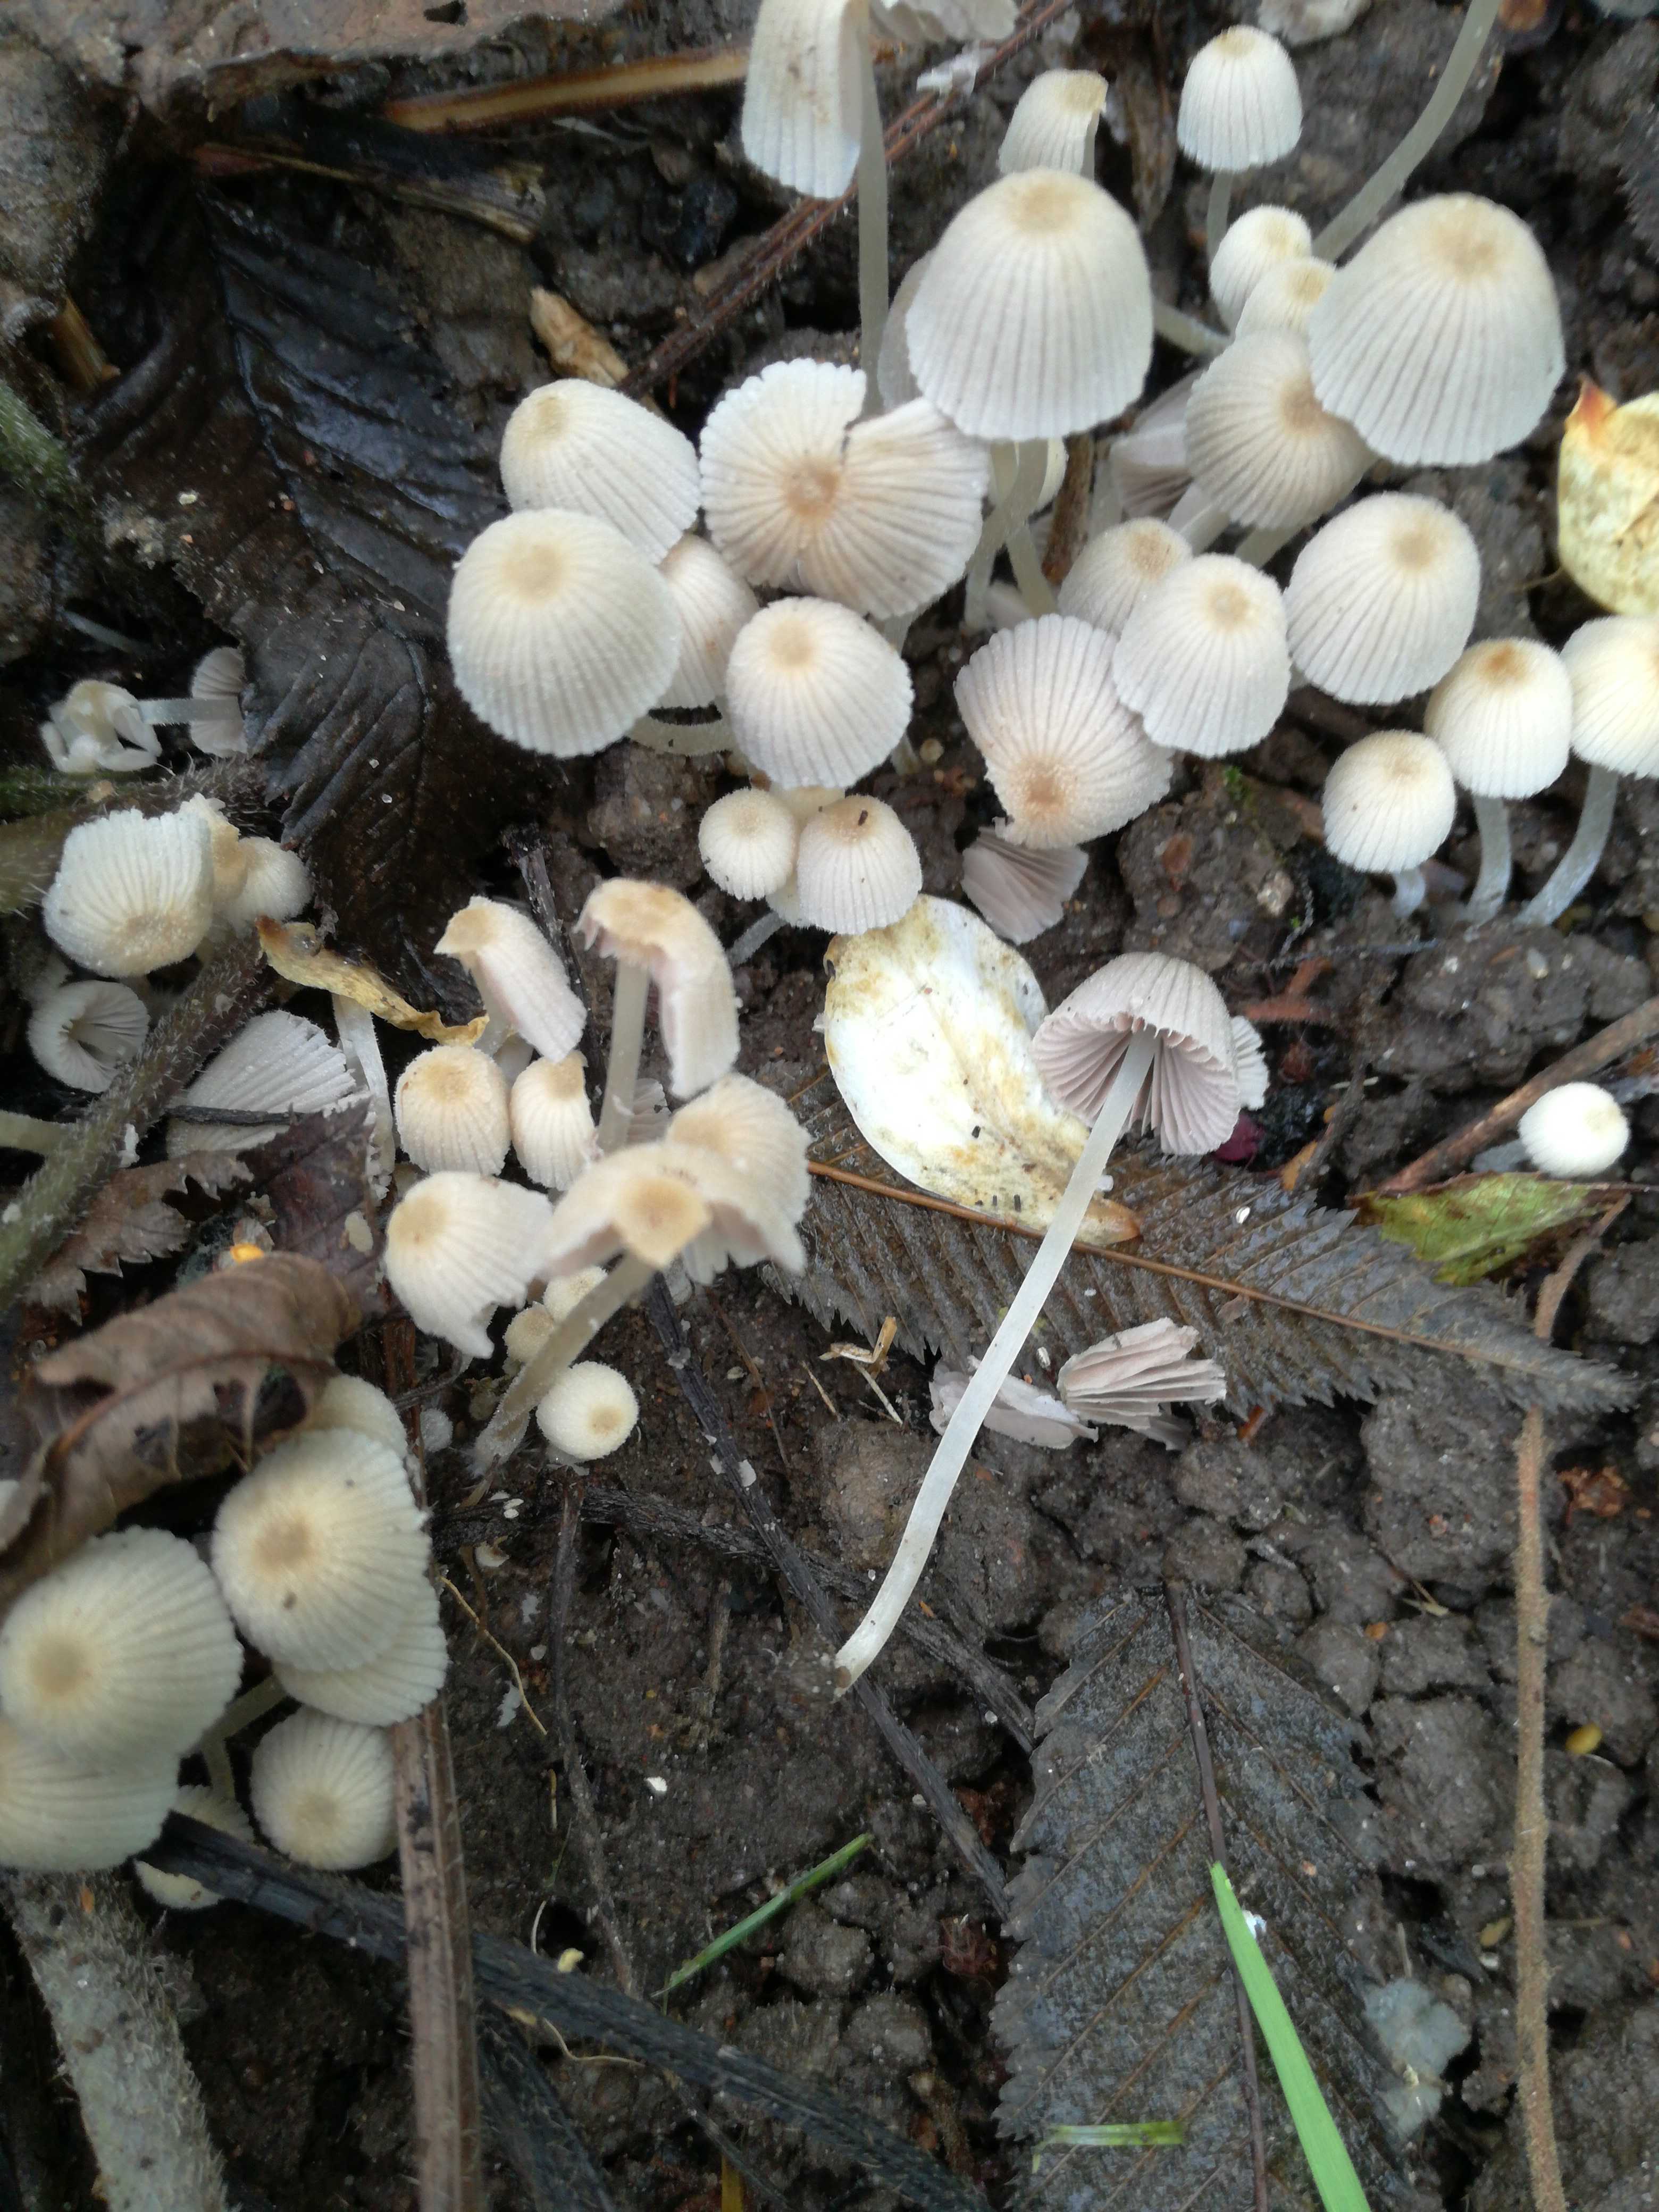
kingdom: Fungi
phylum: Basidiomycota
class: Agaricomycetes
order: Agaricales
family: Psathyrellaceae
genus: Coprinellus
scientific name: Coprinellus disseminatus
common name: bredsået blækhat
